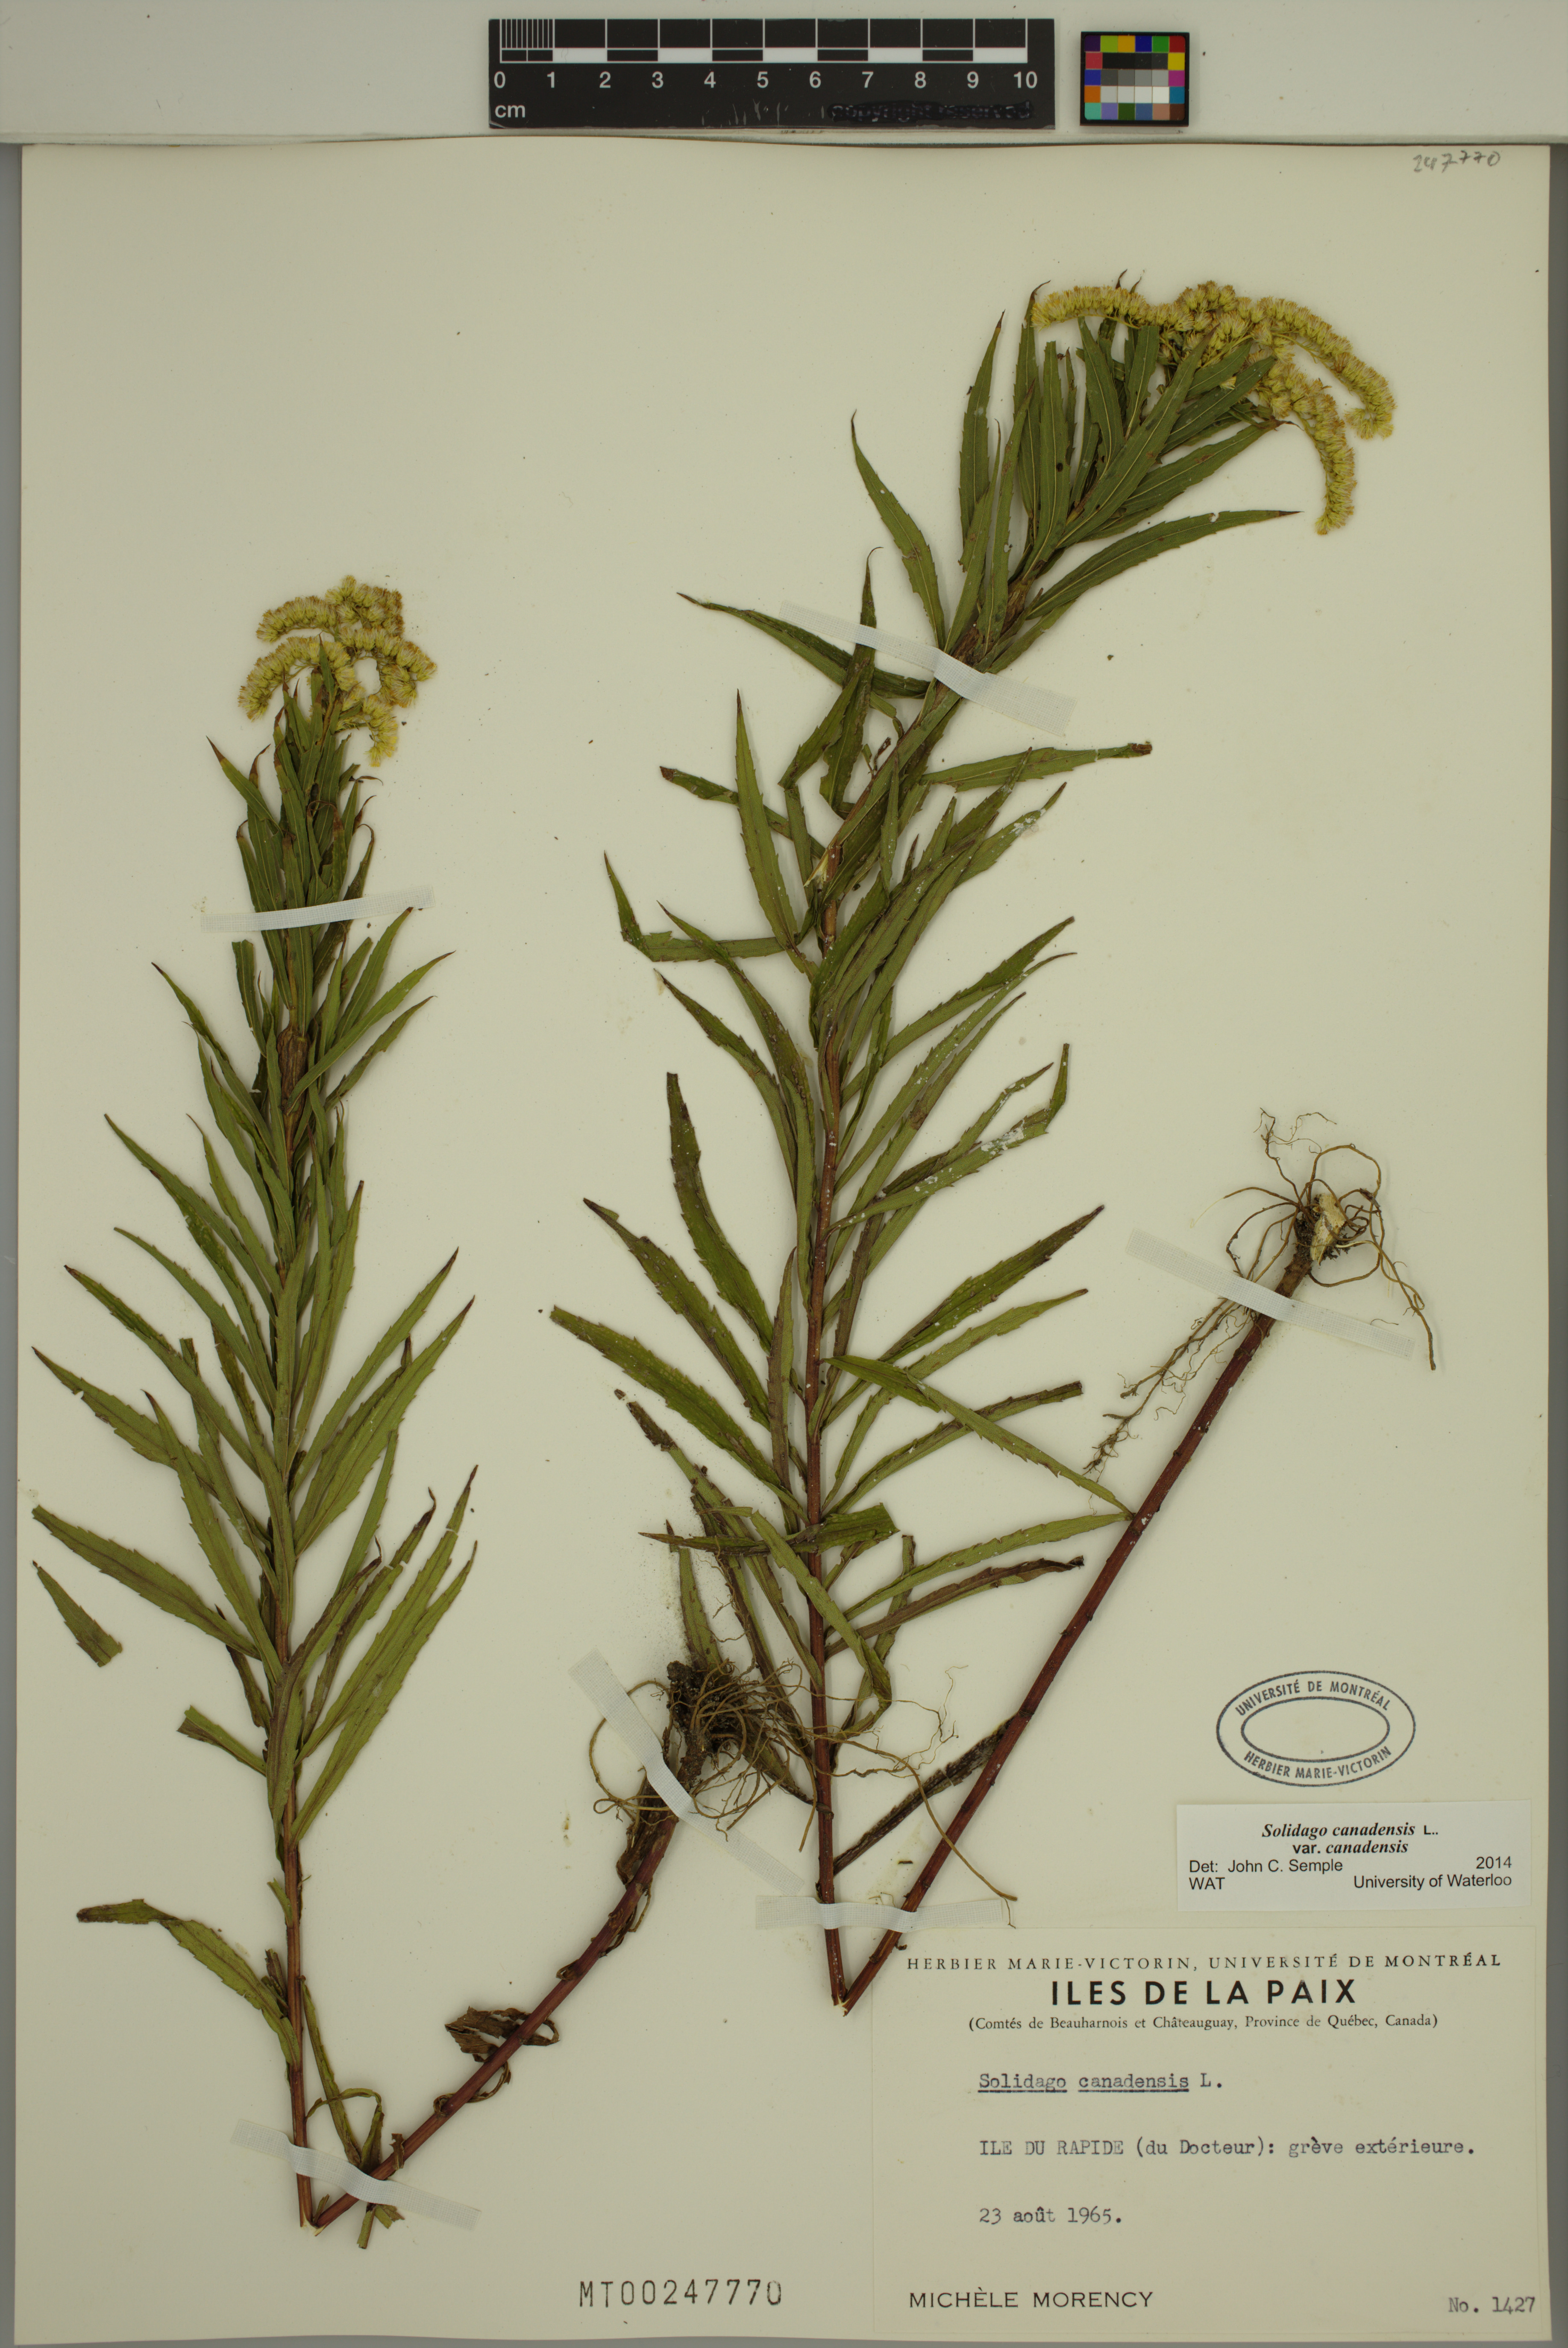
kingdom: Plantae
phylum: Tracheophyta
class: Magnoliopsida
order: Asterales
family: Asteraceae
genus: Solidago
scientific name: Solidago canadensis
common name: Canada goldenrod
